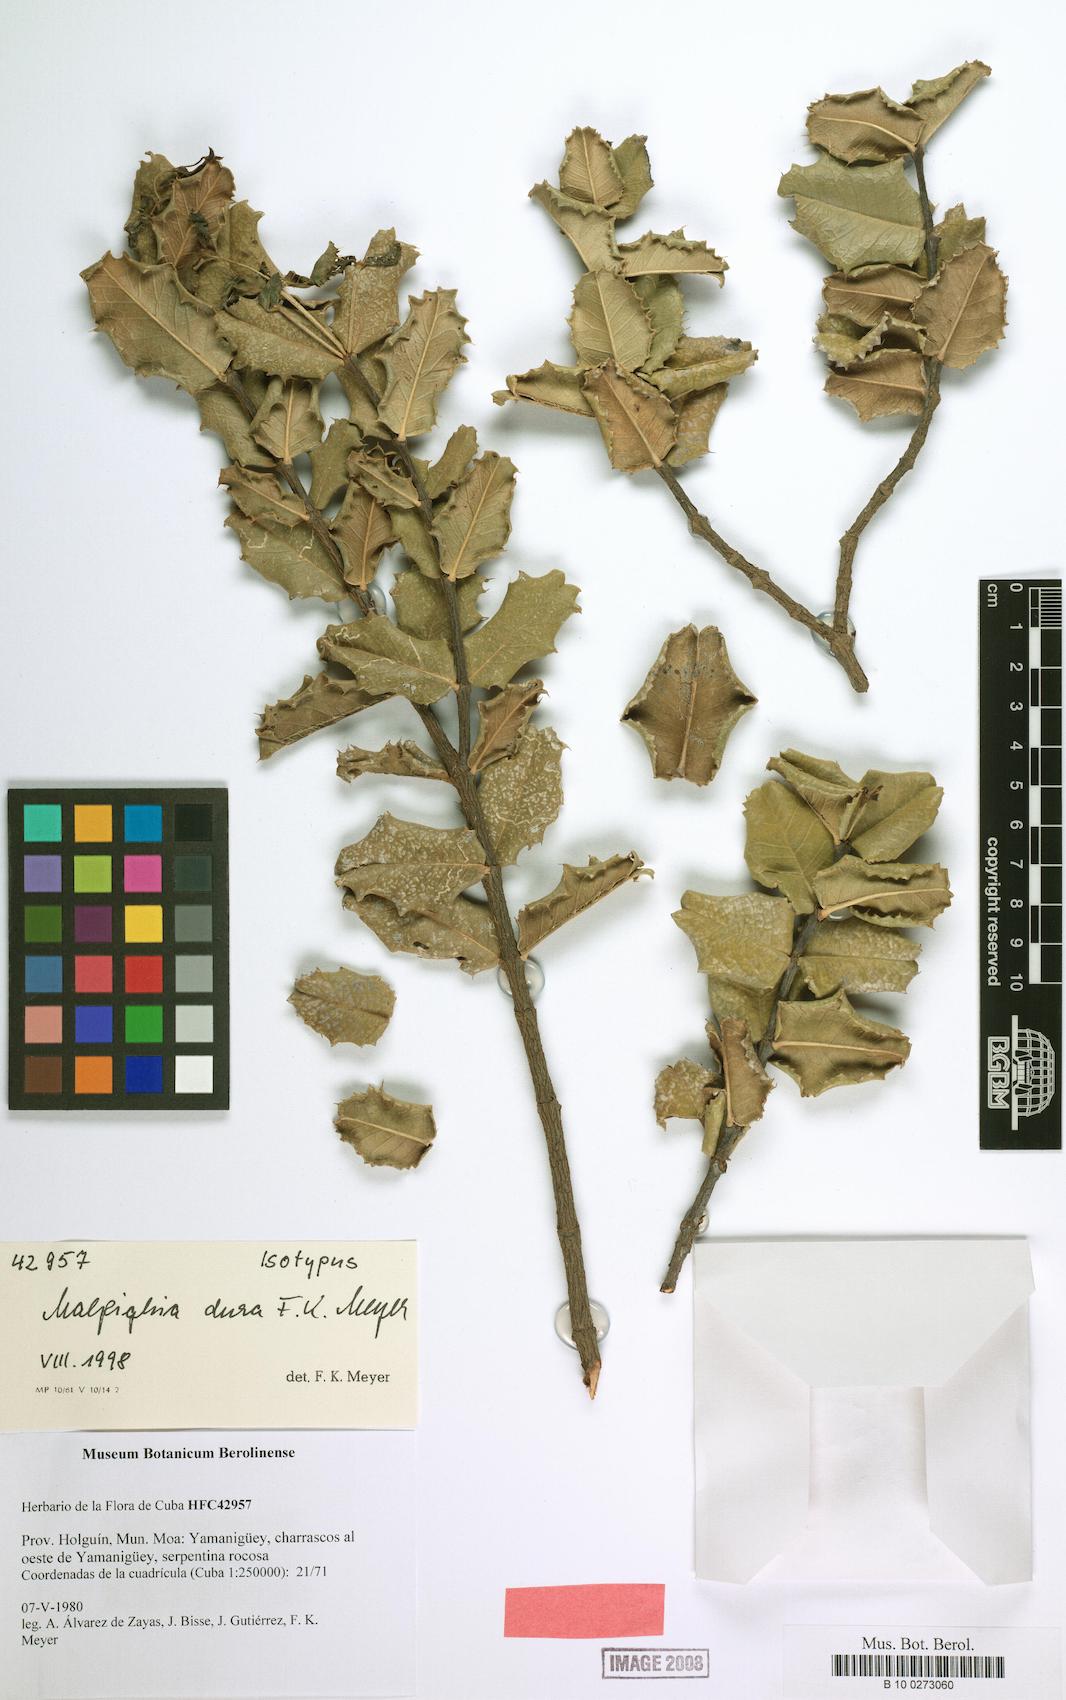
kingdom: Plantae
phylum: Tracheophyta
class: Magnoliopsida
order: Malpighiales
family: Malpighiaceae
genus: Malpighia
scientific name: Malpighia dura
